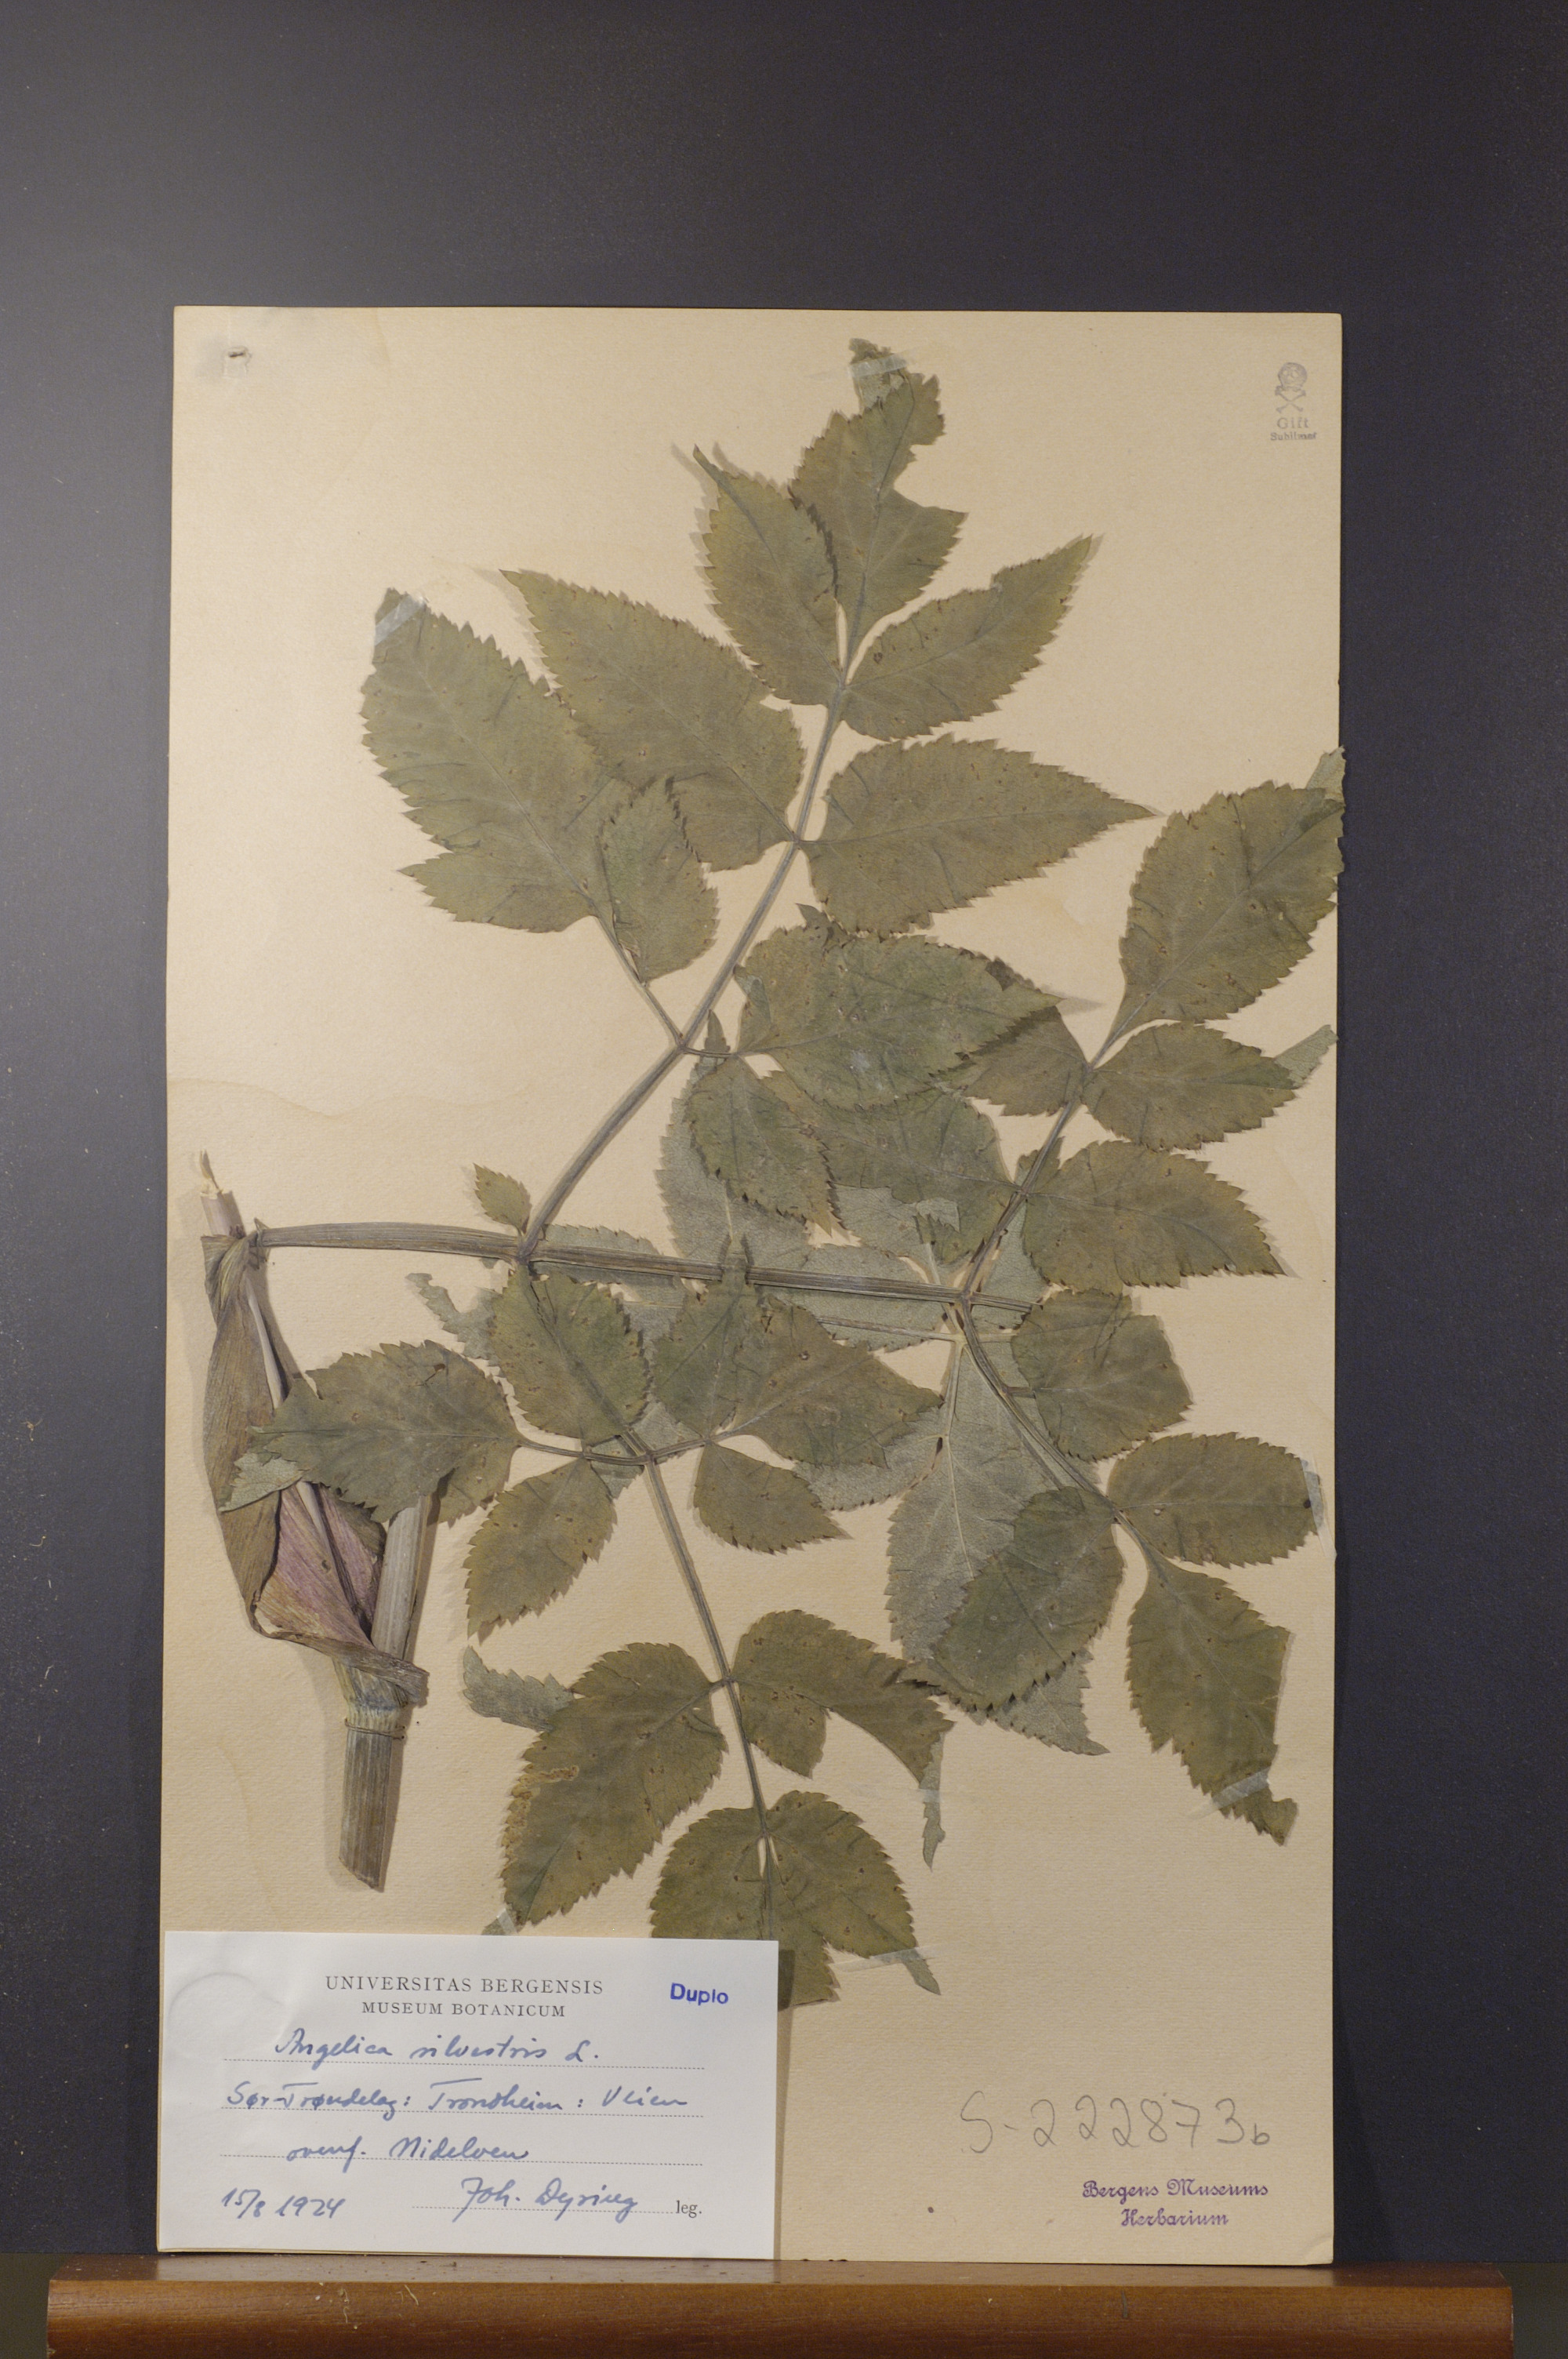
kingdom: Plantae
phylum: Tracheophyta
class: Magnoliopsida
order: Apiales
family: Apiaceae
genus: Angelica
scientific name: Angelica sylvestris
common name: Wild angelica
